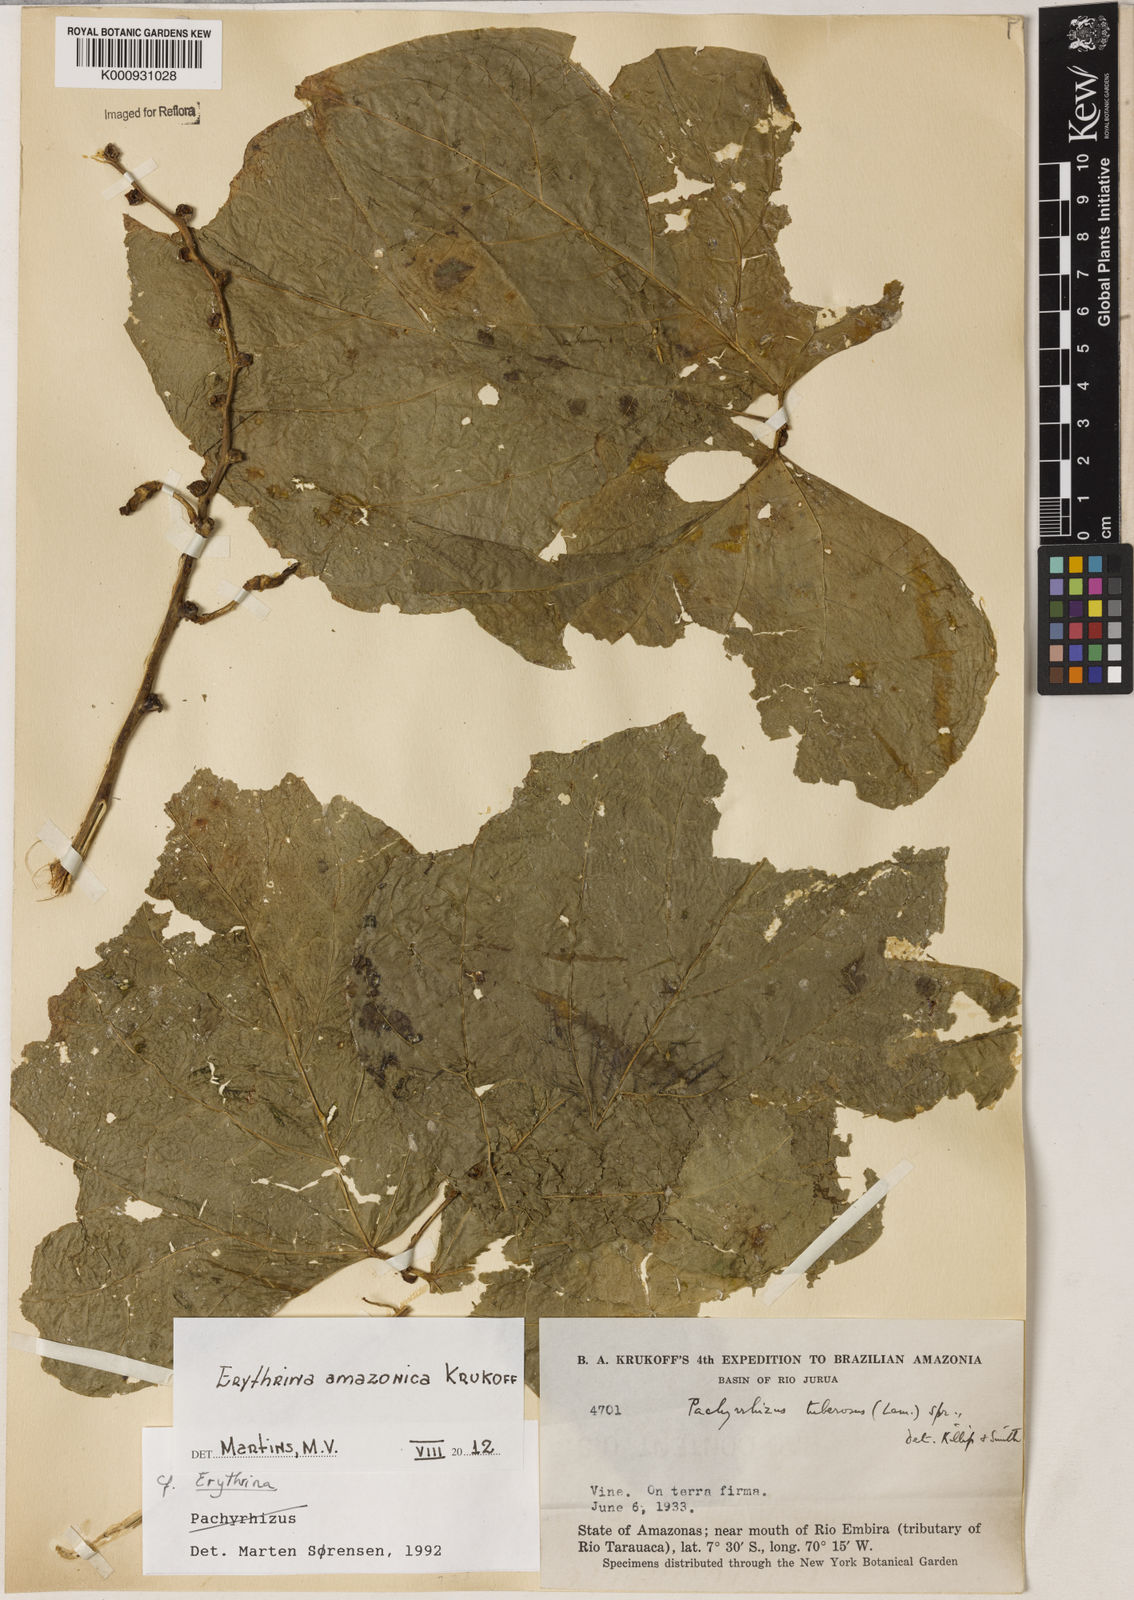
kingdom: Plantae
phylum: Tracheophyta
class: Magnoliopsida
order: Fabales
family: Fabaceae
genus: Erythrina
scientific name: Erythrina amazonica
